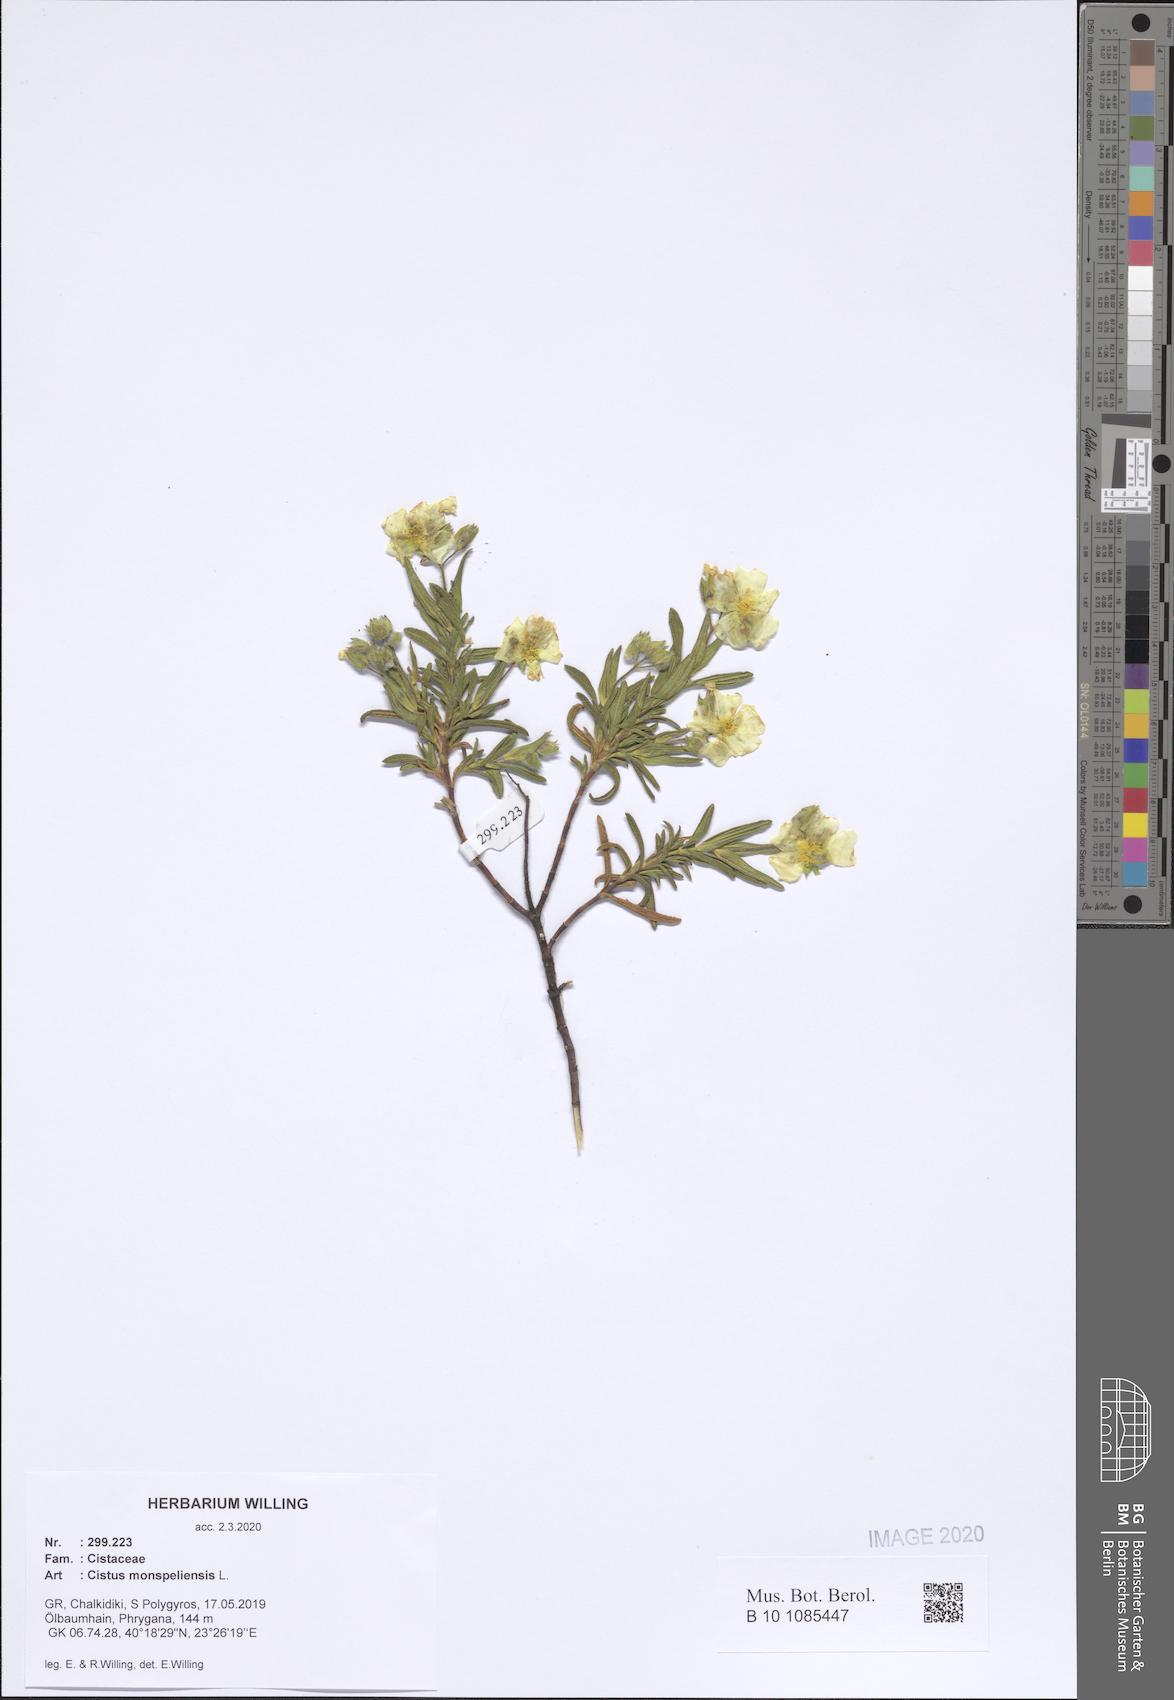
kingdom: Plantae
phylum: Tracheophyta
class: Magnoliopsida
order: Malvales
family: Cistaceae
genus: Cistus
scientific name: Cistus monspeliensis
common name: Montpelier cistus
